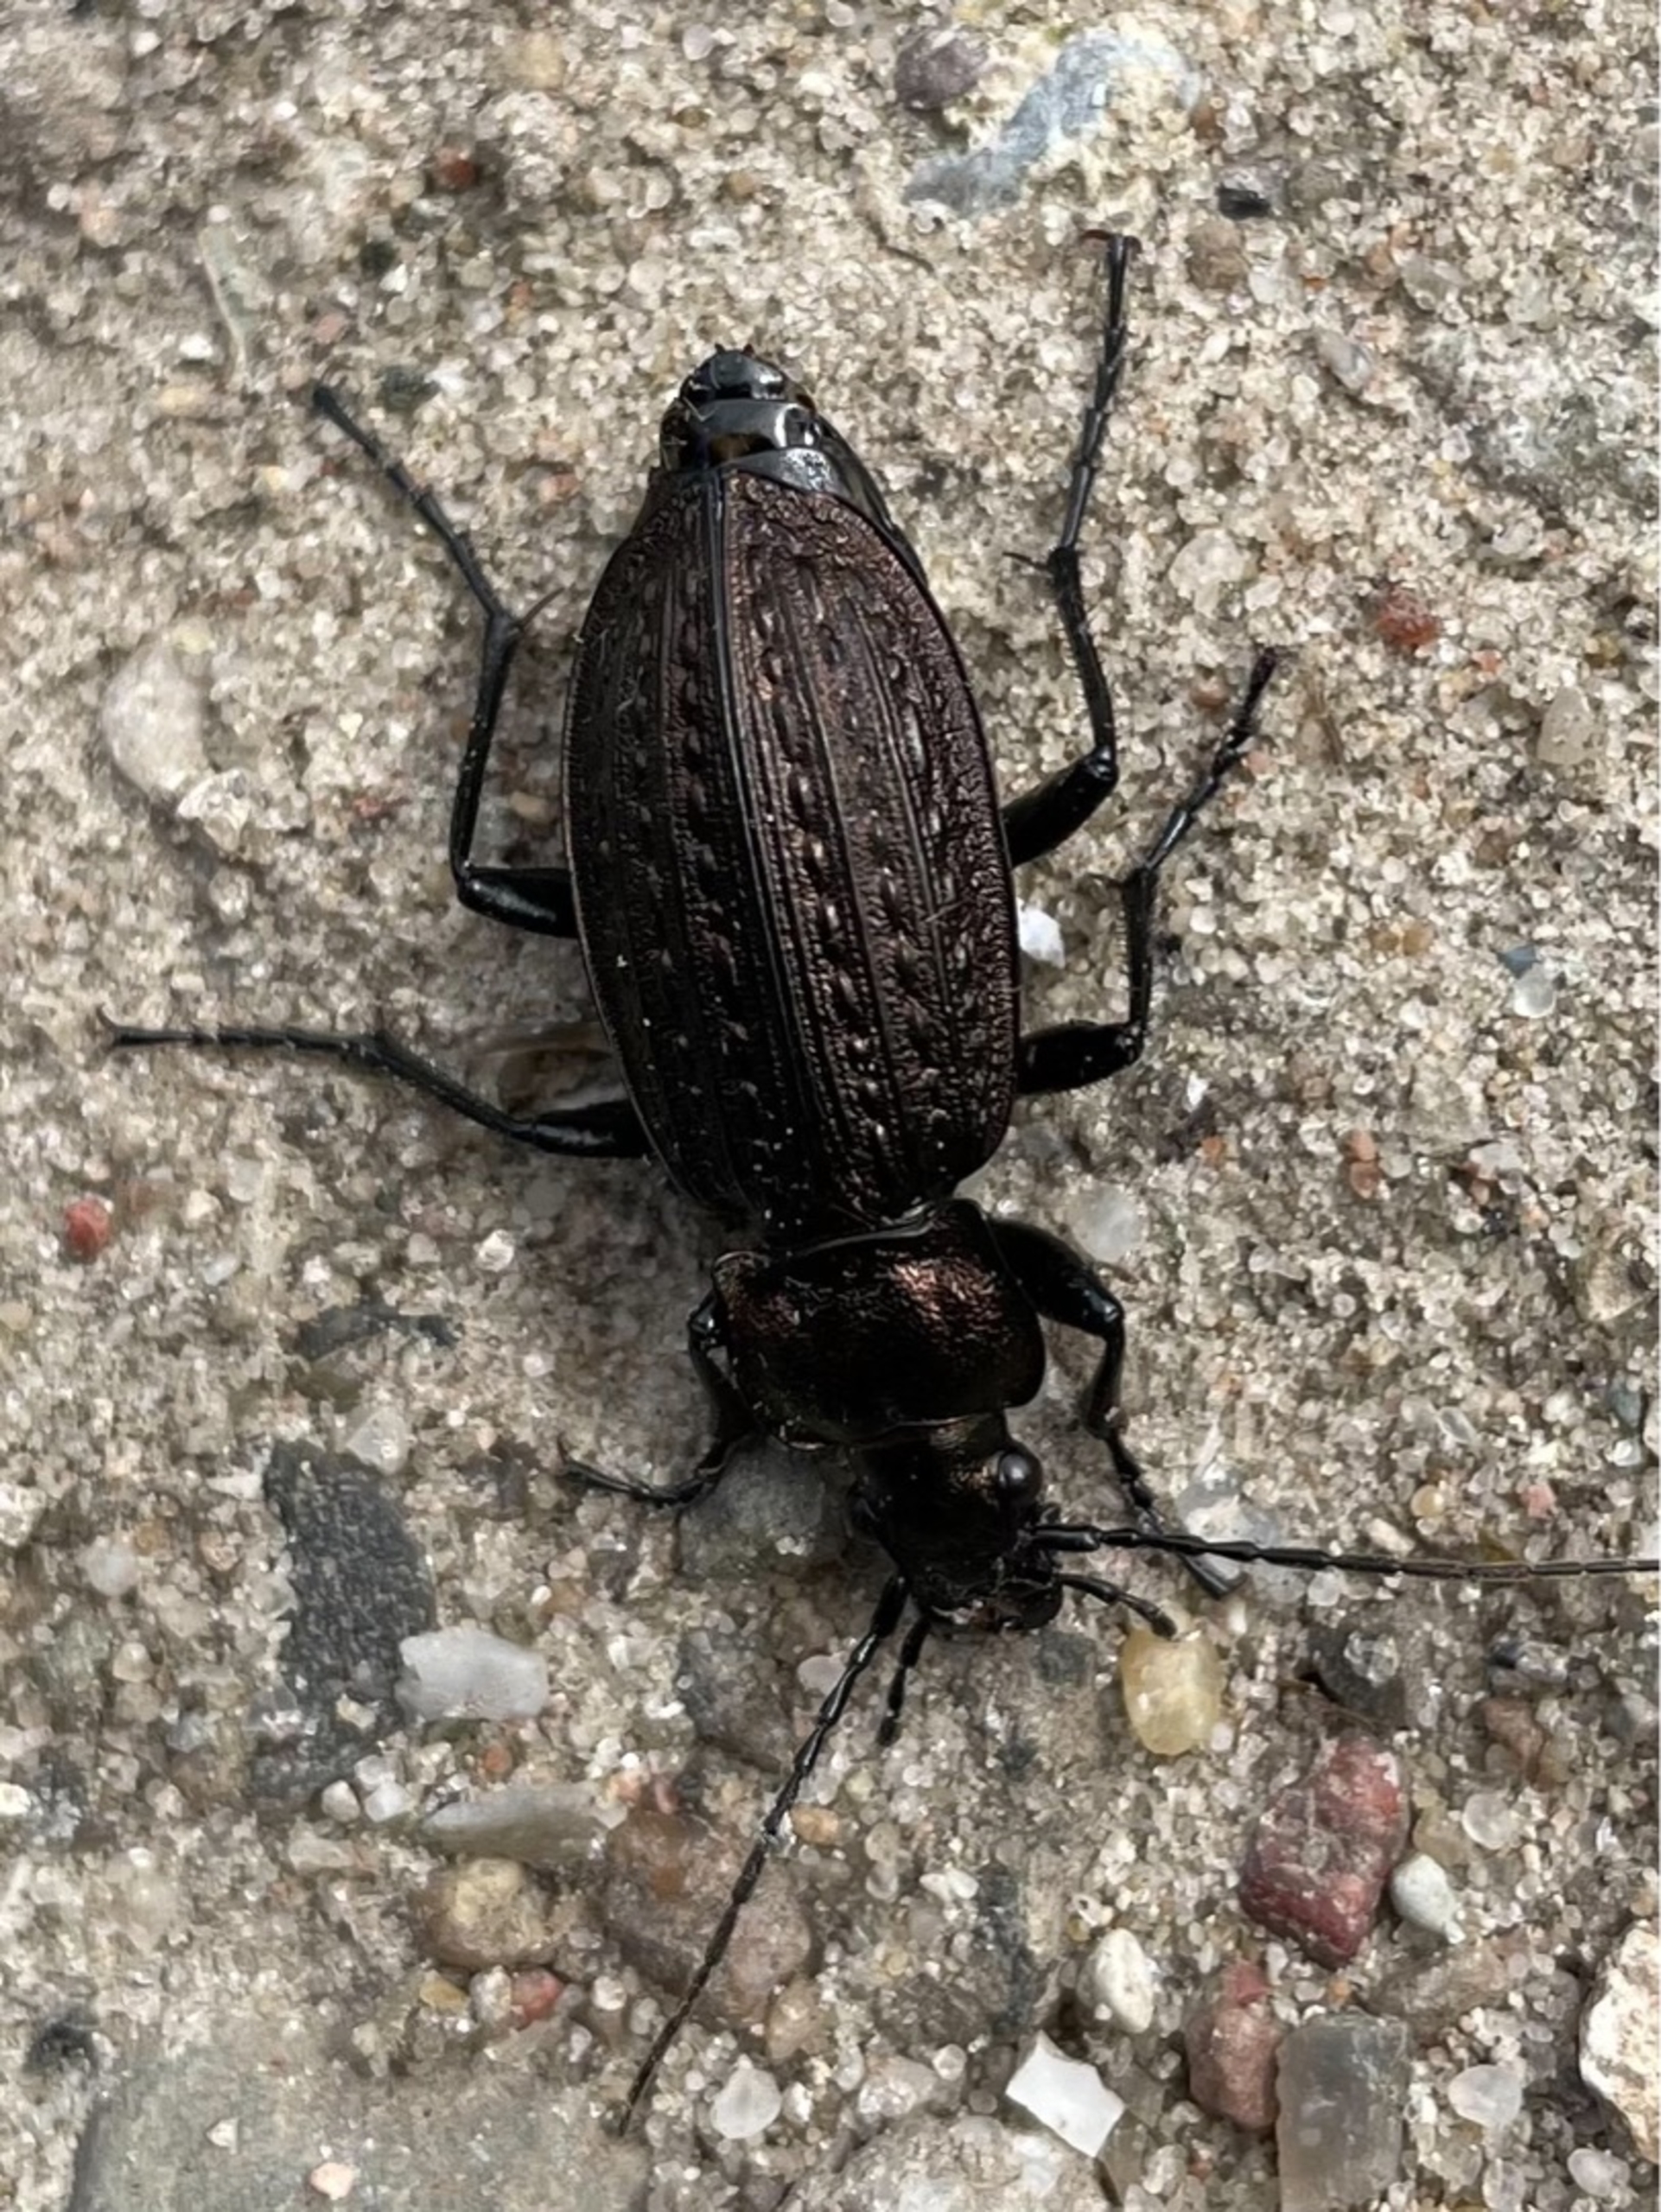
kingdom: Animalia
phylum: Arthropoda
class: Insecta
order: Coleoptera
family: Carabidae
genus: Carabus
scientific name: Carabus granulatus
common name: Kornet løber
